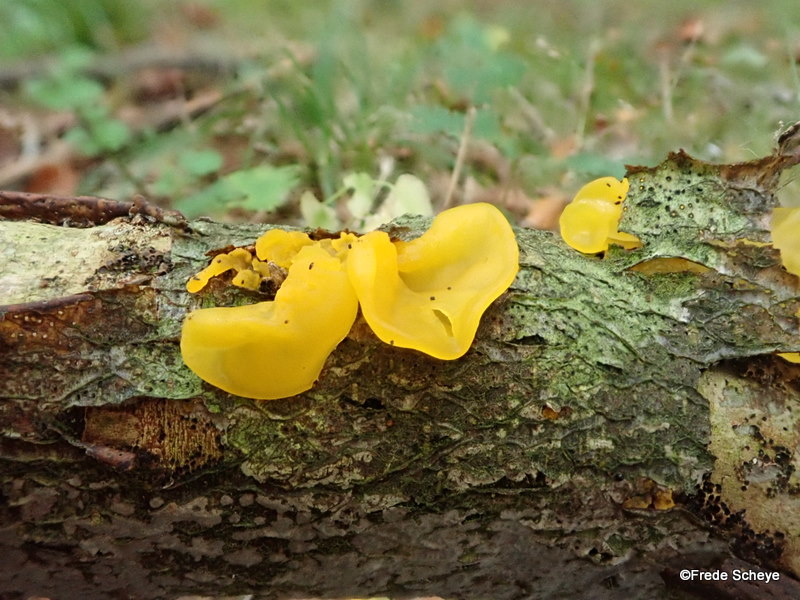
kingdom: Fungi
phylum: Basidiomycota
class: Tremellomycetes
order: Tremellales
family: Tremellaceae
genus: Tremella
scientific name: Tremella mesenterica
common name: gul bævresvamp
